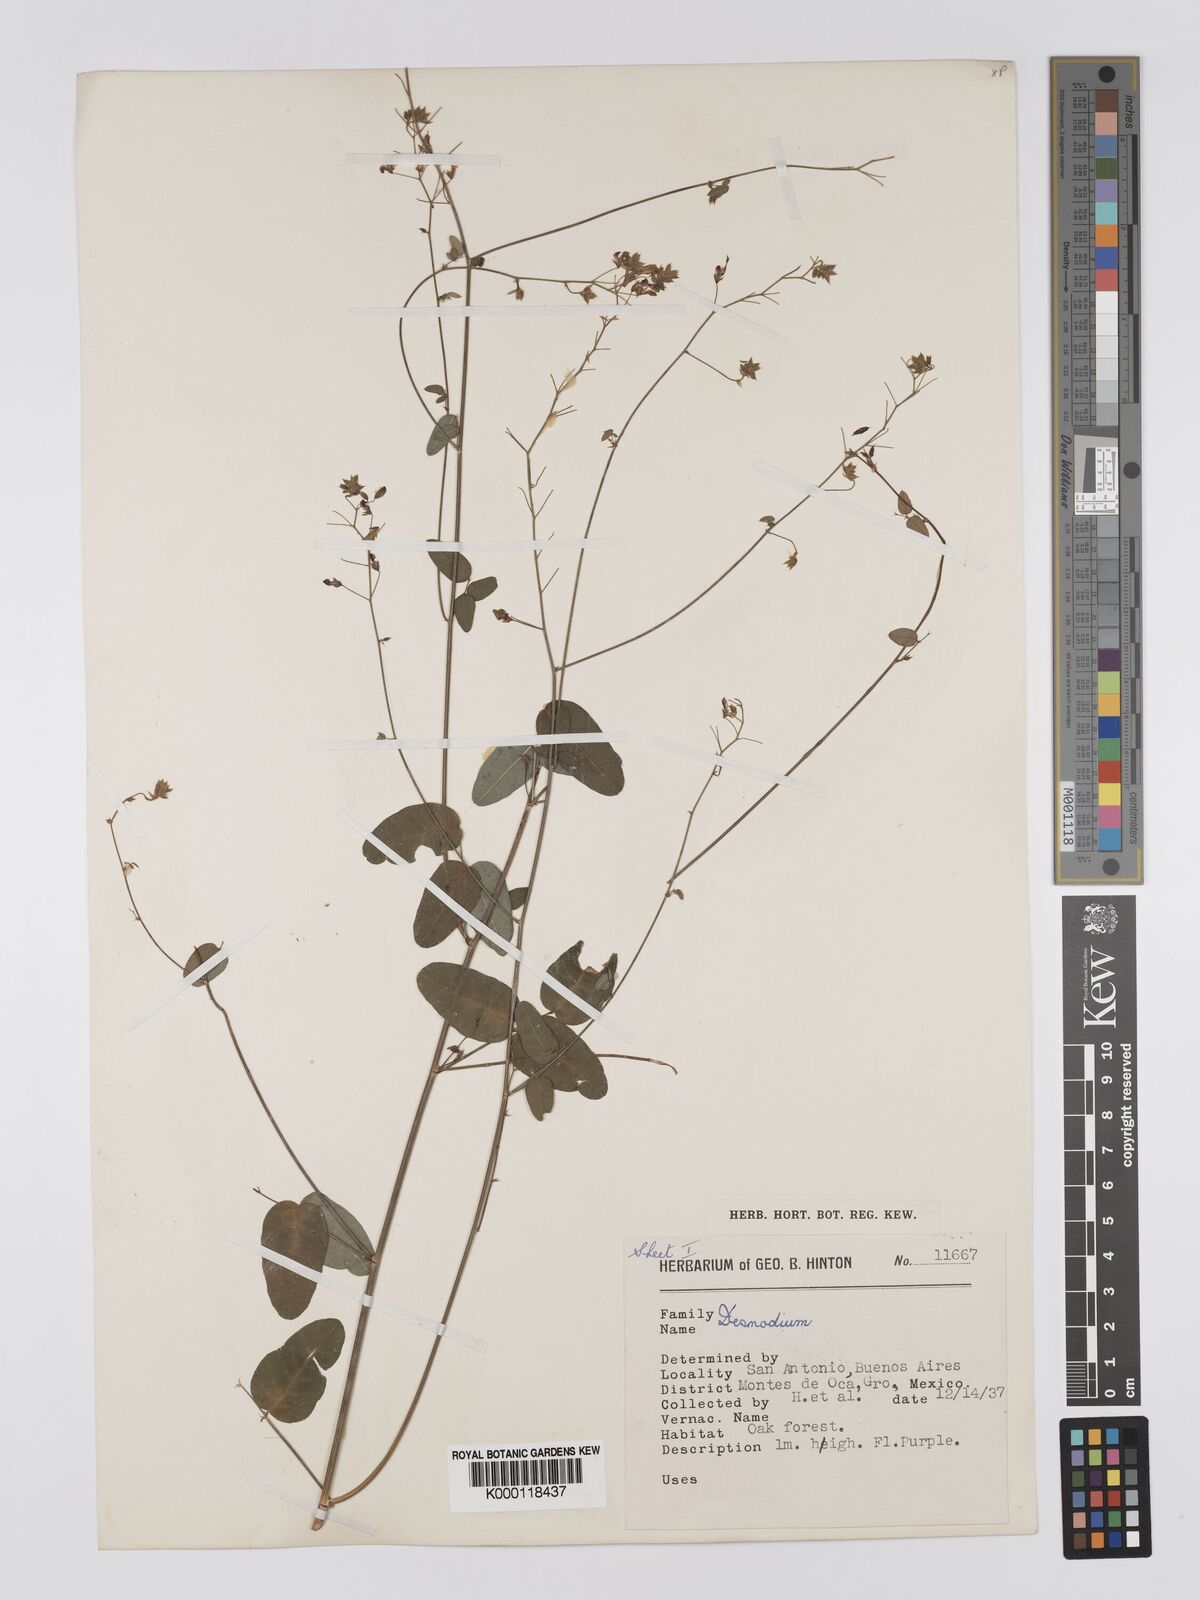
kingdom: Plantae
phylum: Tracheophyta
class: Magnoliopsida
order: Fabales
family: Fabaceae
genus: Desmodium
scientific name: Desmodium
